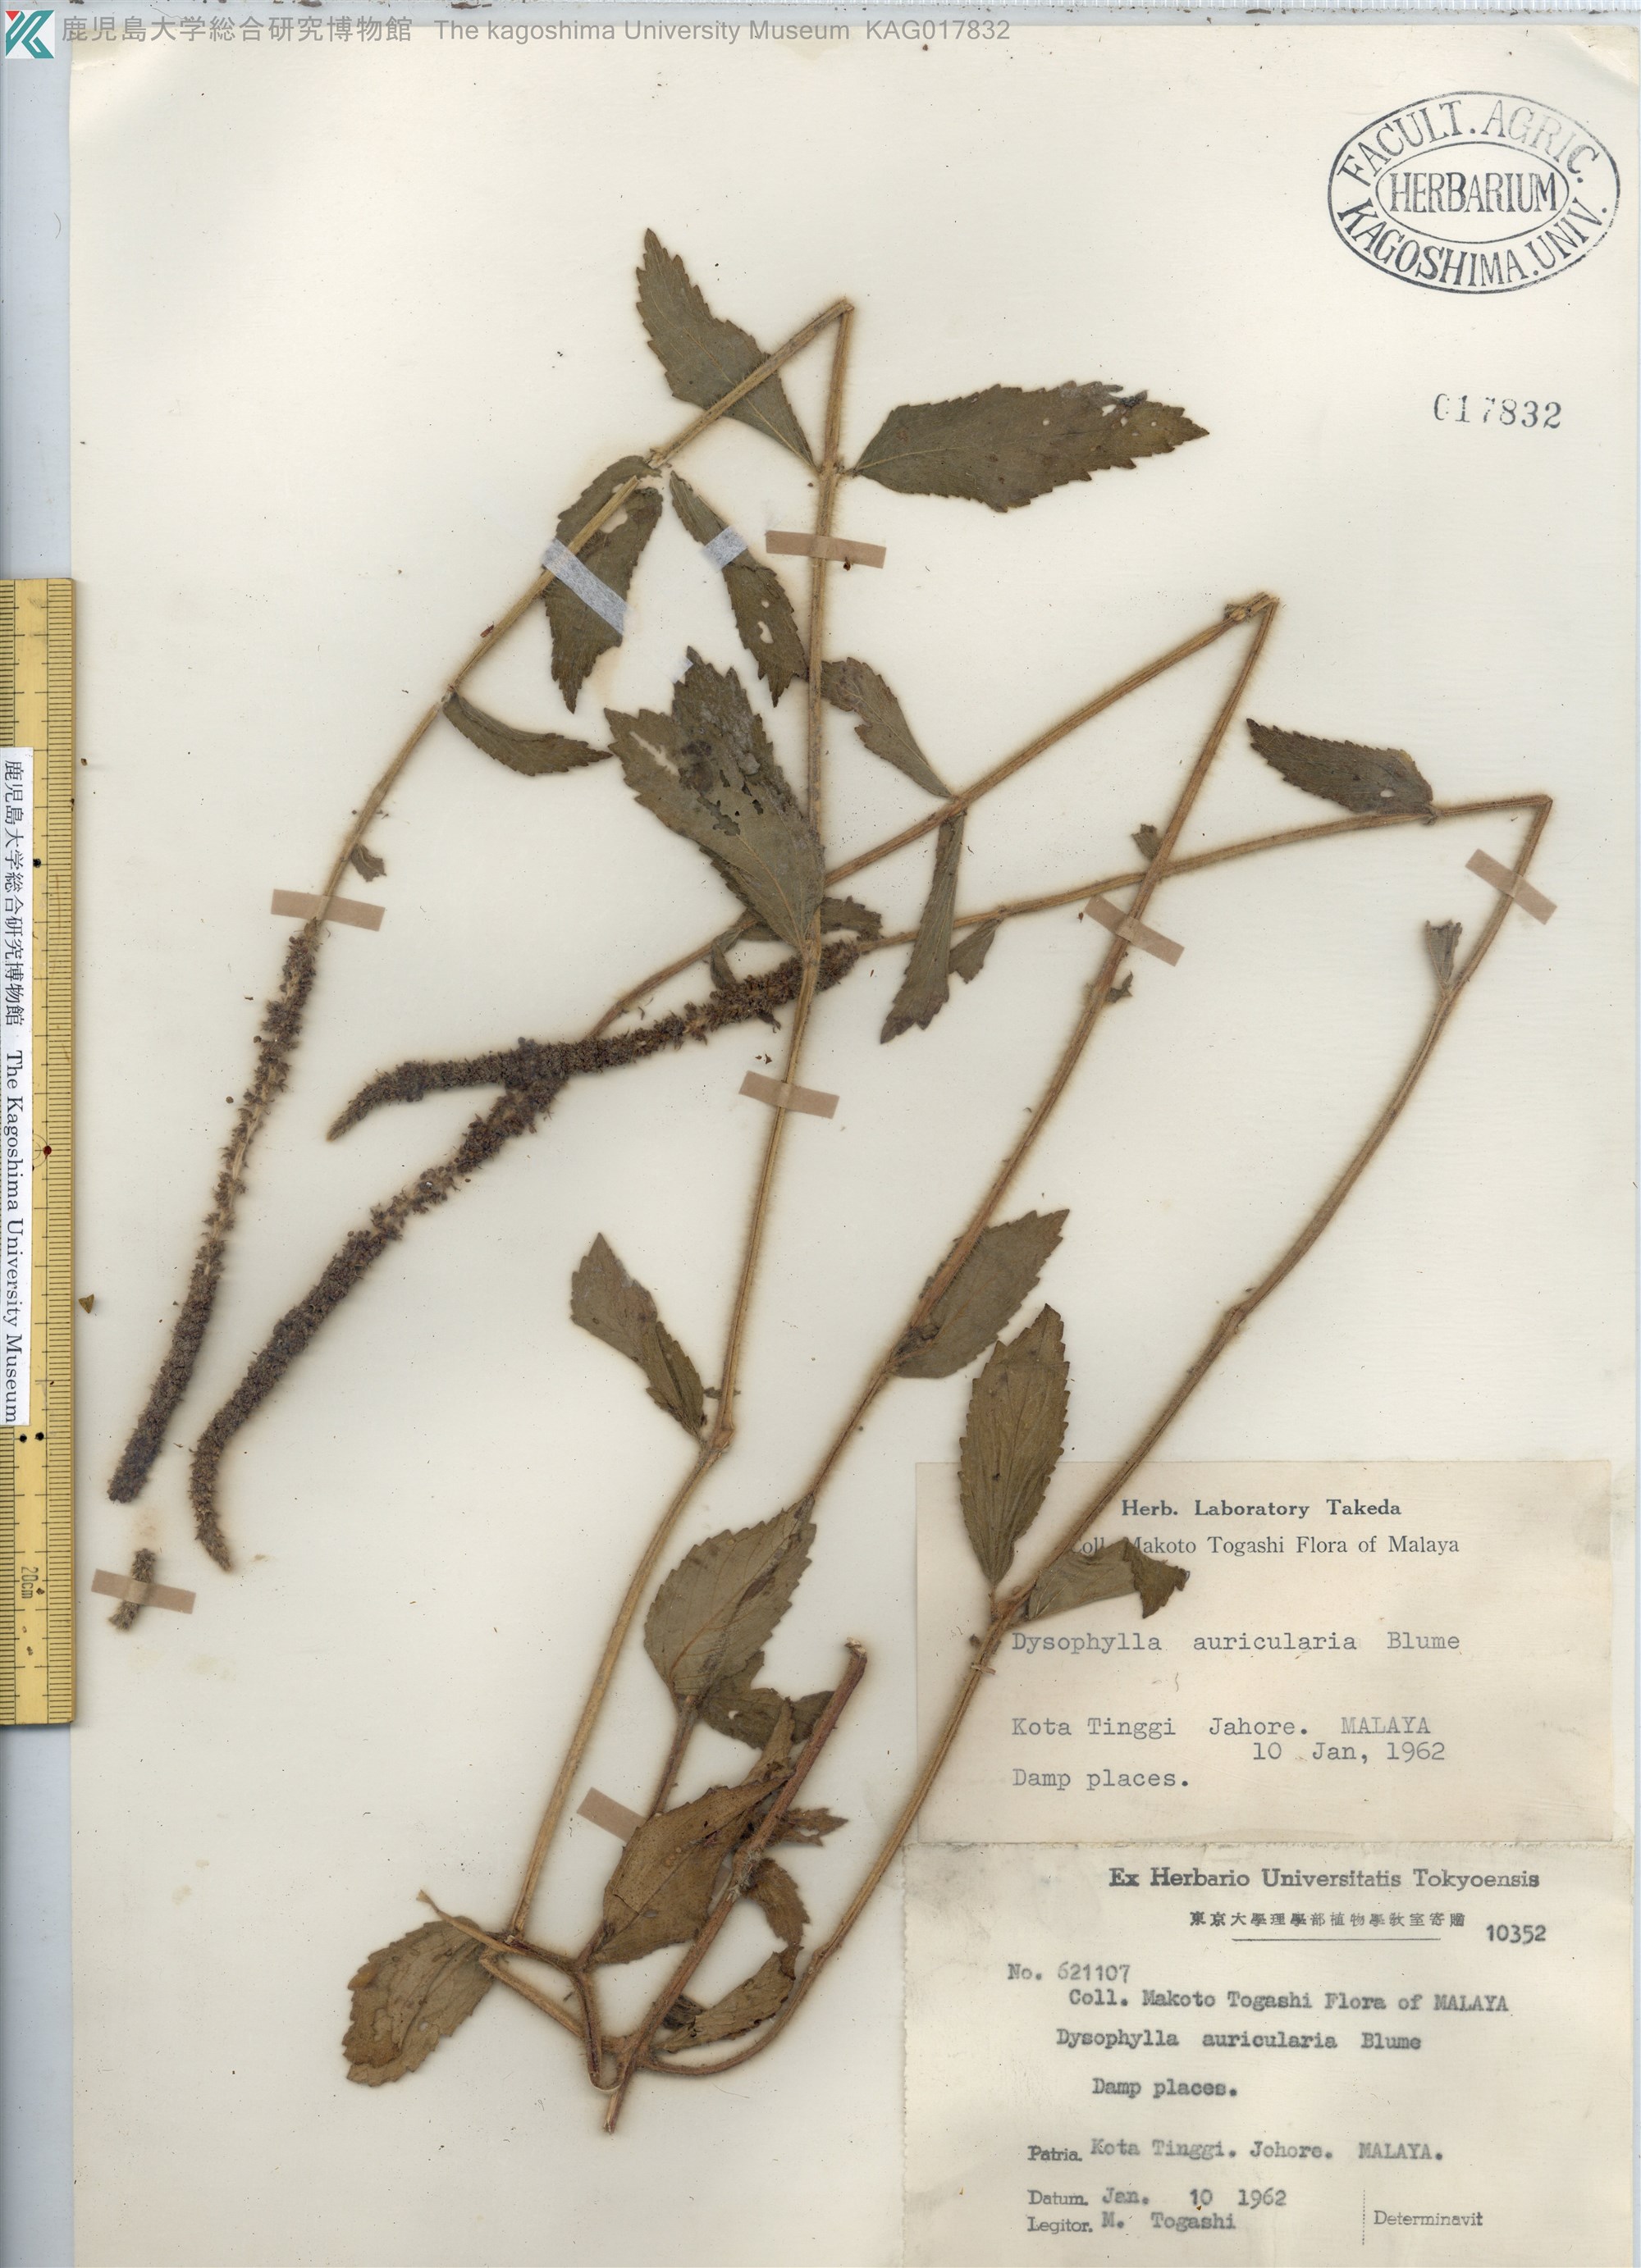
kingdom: Plantae
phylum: Tracheophyta
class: Magnoliopsida
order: Lamiales
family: Lamiaceae
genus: Pogostemon
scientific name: Pogostemon auricularius
